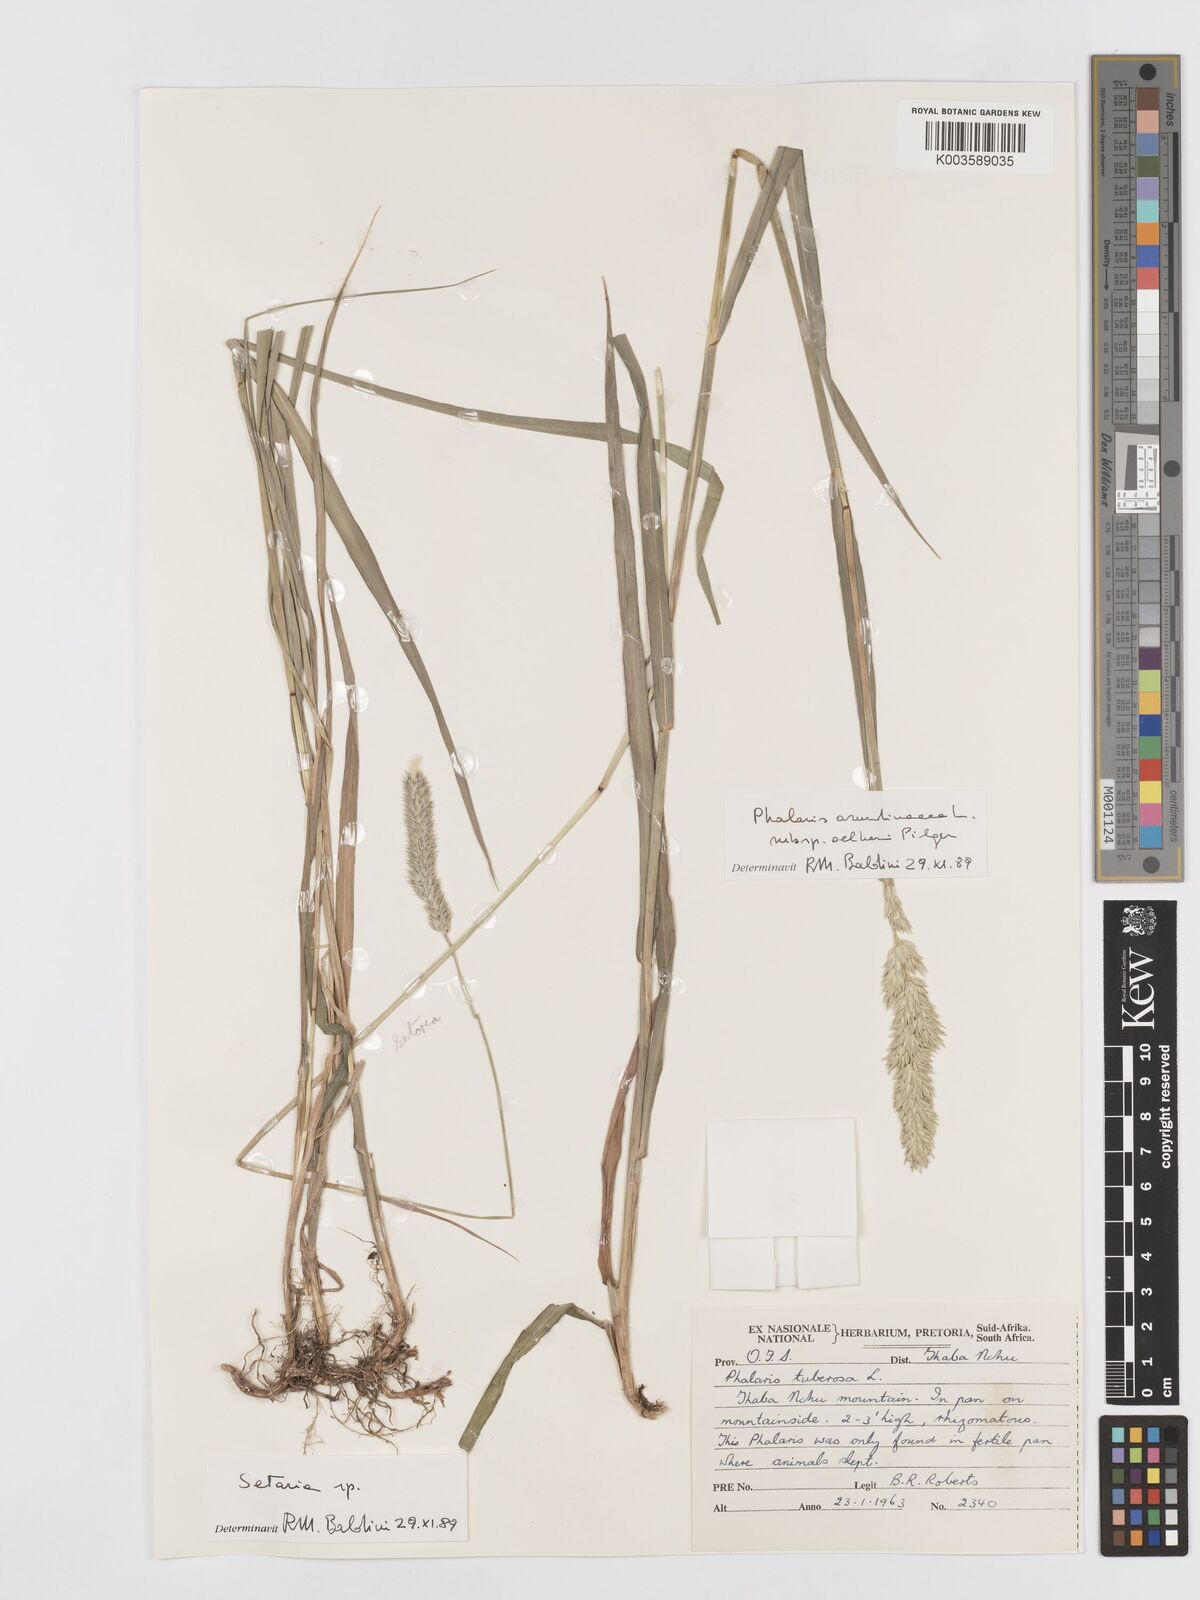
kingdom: Plantae
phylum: Tracheophyta
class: Liliopsida
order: Poales
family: Poaceae
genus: Phalaris
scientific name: Phalaris arundinacea
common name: Reed canary-grass
